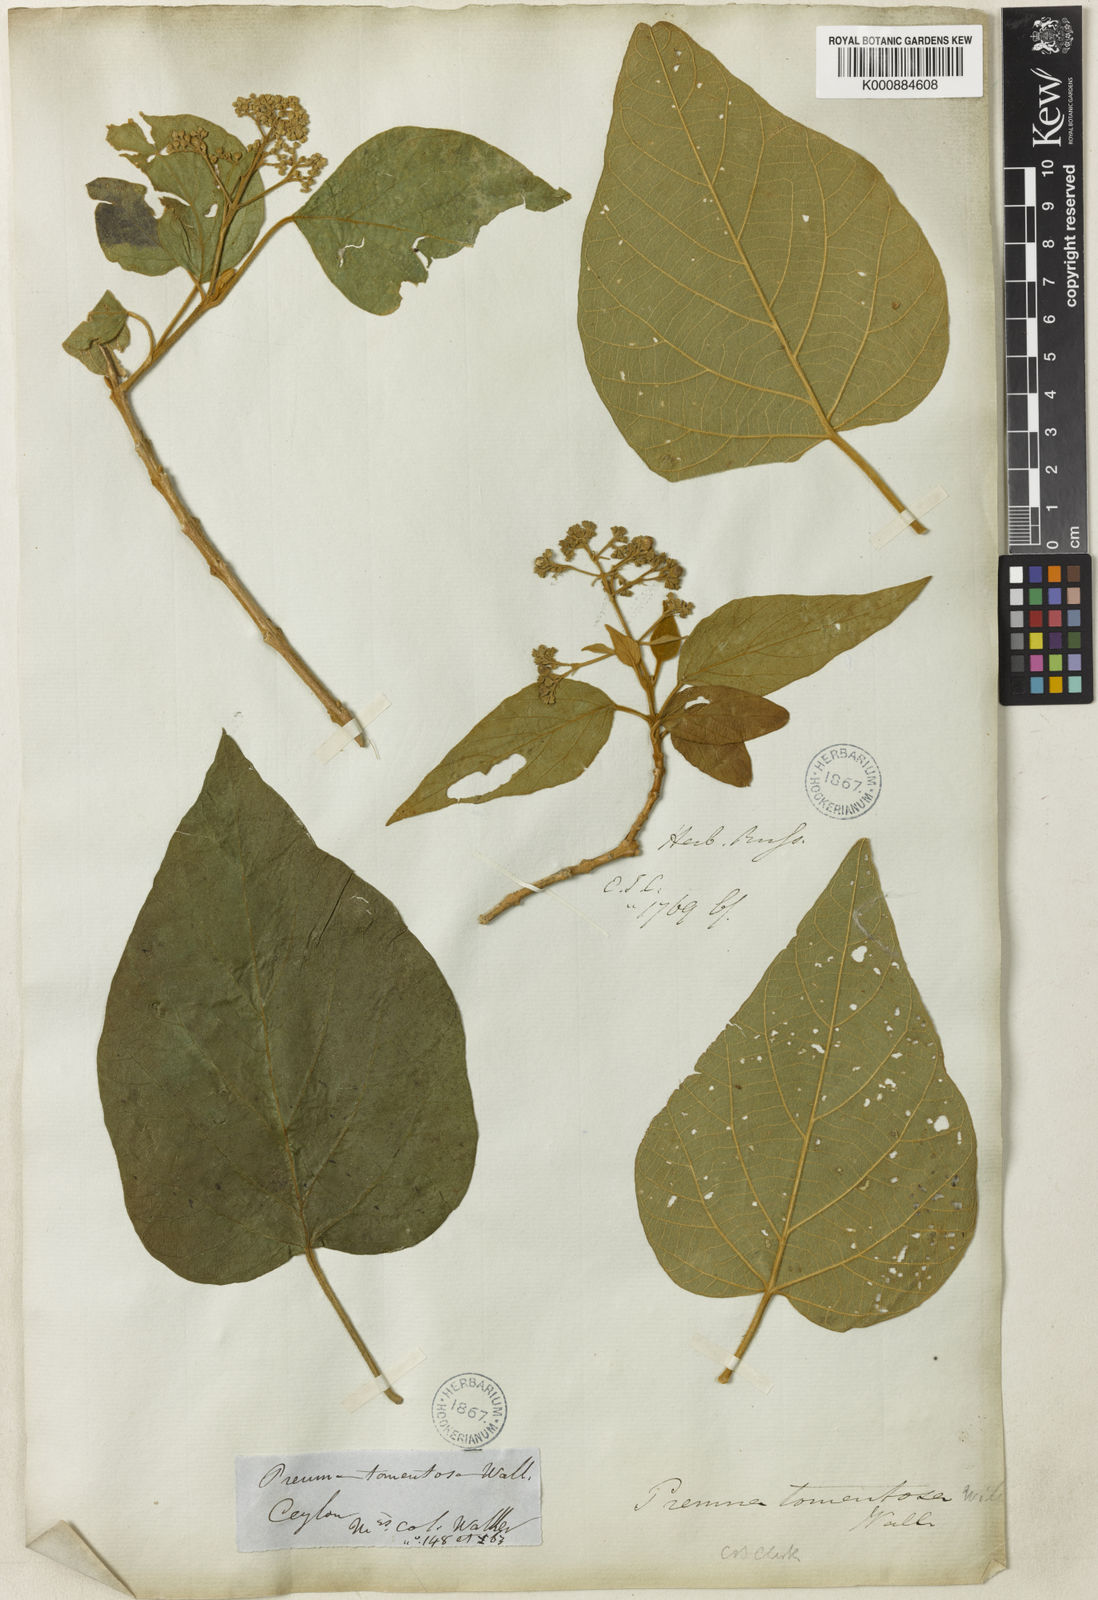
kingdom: Plantae
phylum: Tracheophyta
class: Magnoliopsida
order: Lamiales
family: Lamiaceae
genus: Premna
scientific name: Premna tomentosa
